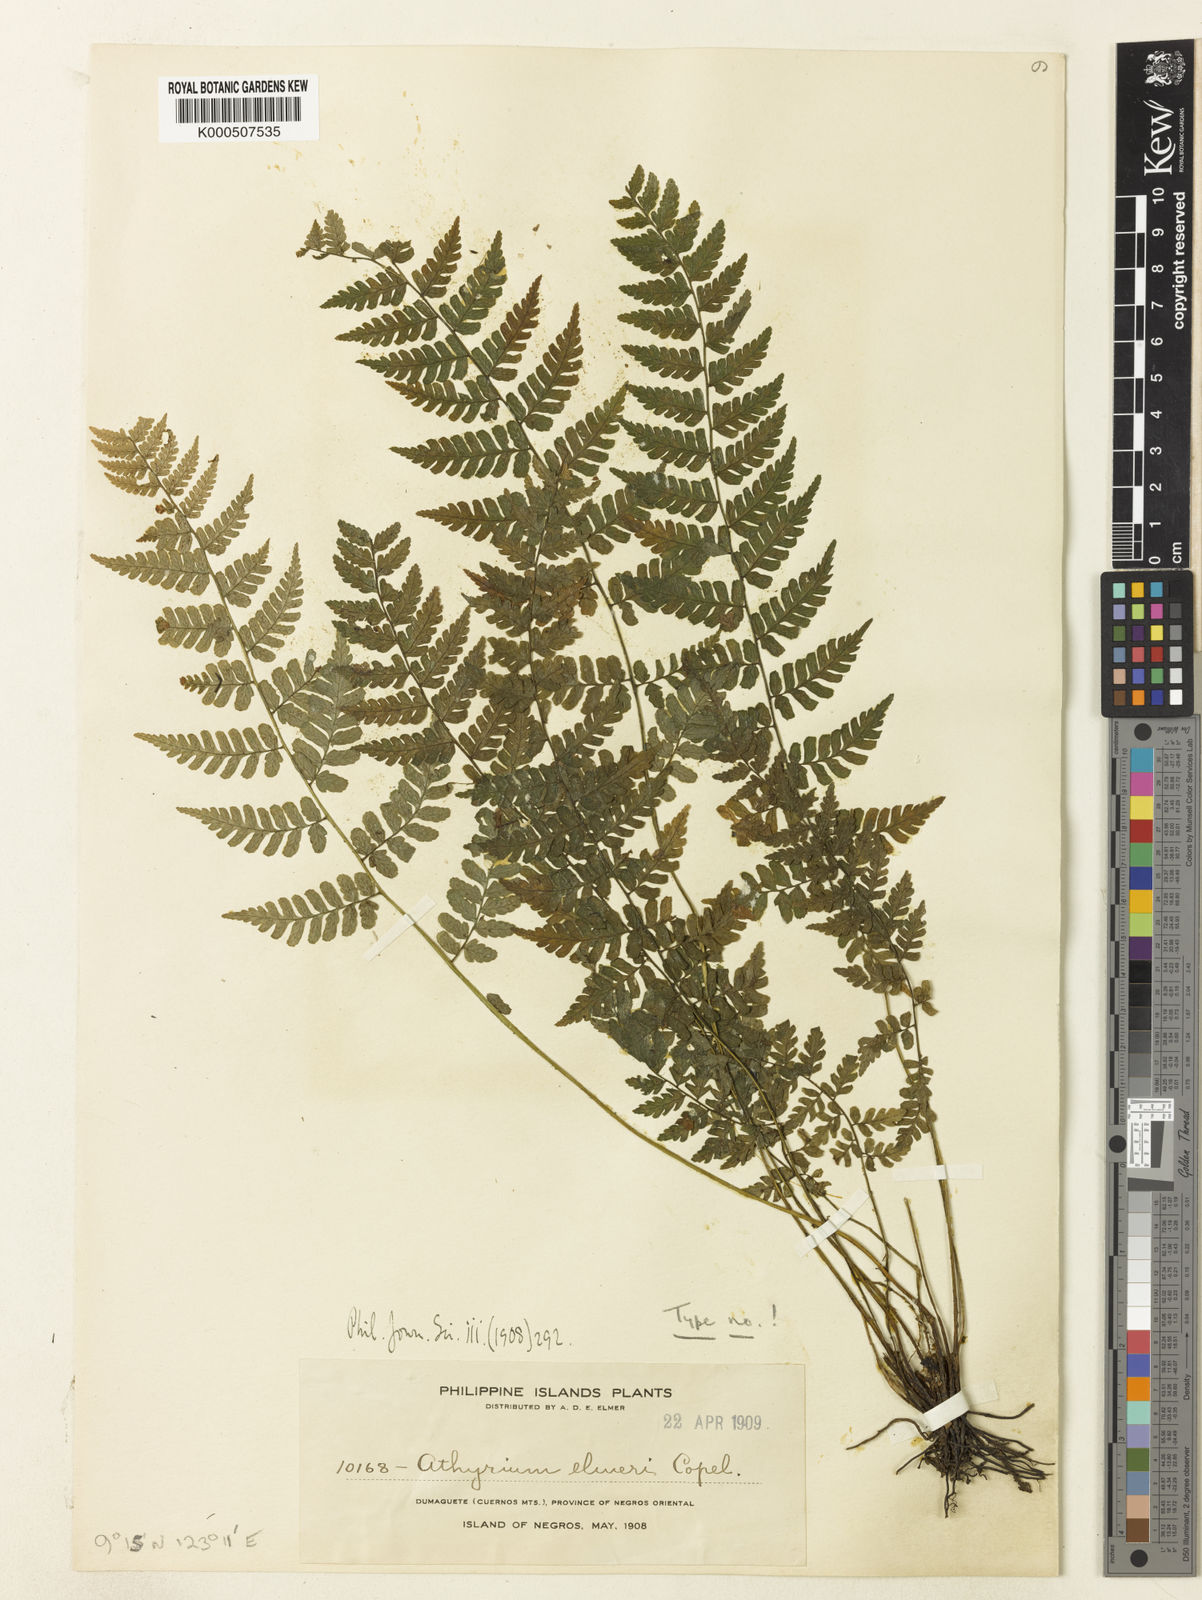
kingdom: Plantae
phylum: Tracheophyta
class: Polypodiopsida
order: Polypodiales
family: Athyriaceae
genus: Athyrium
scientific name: Athyrium elmeri
